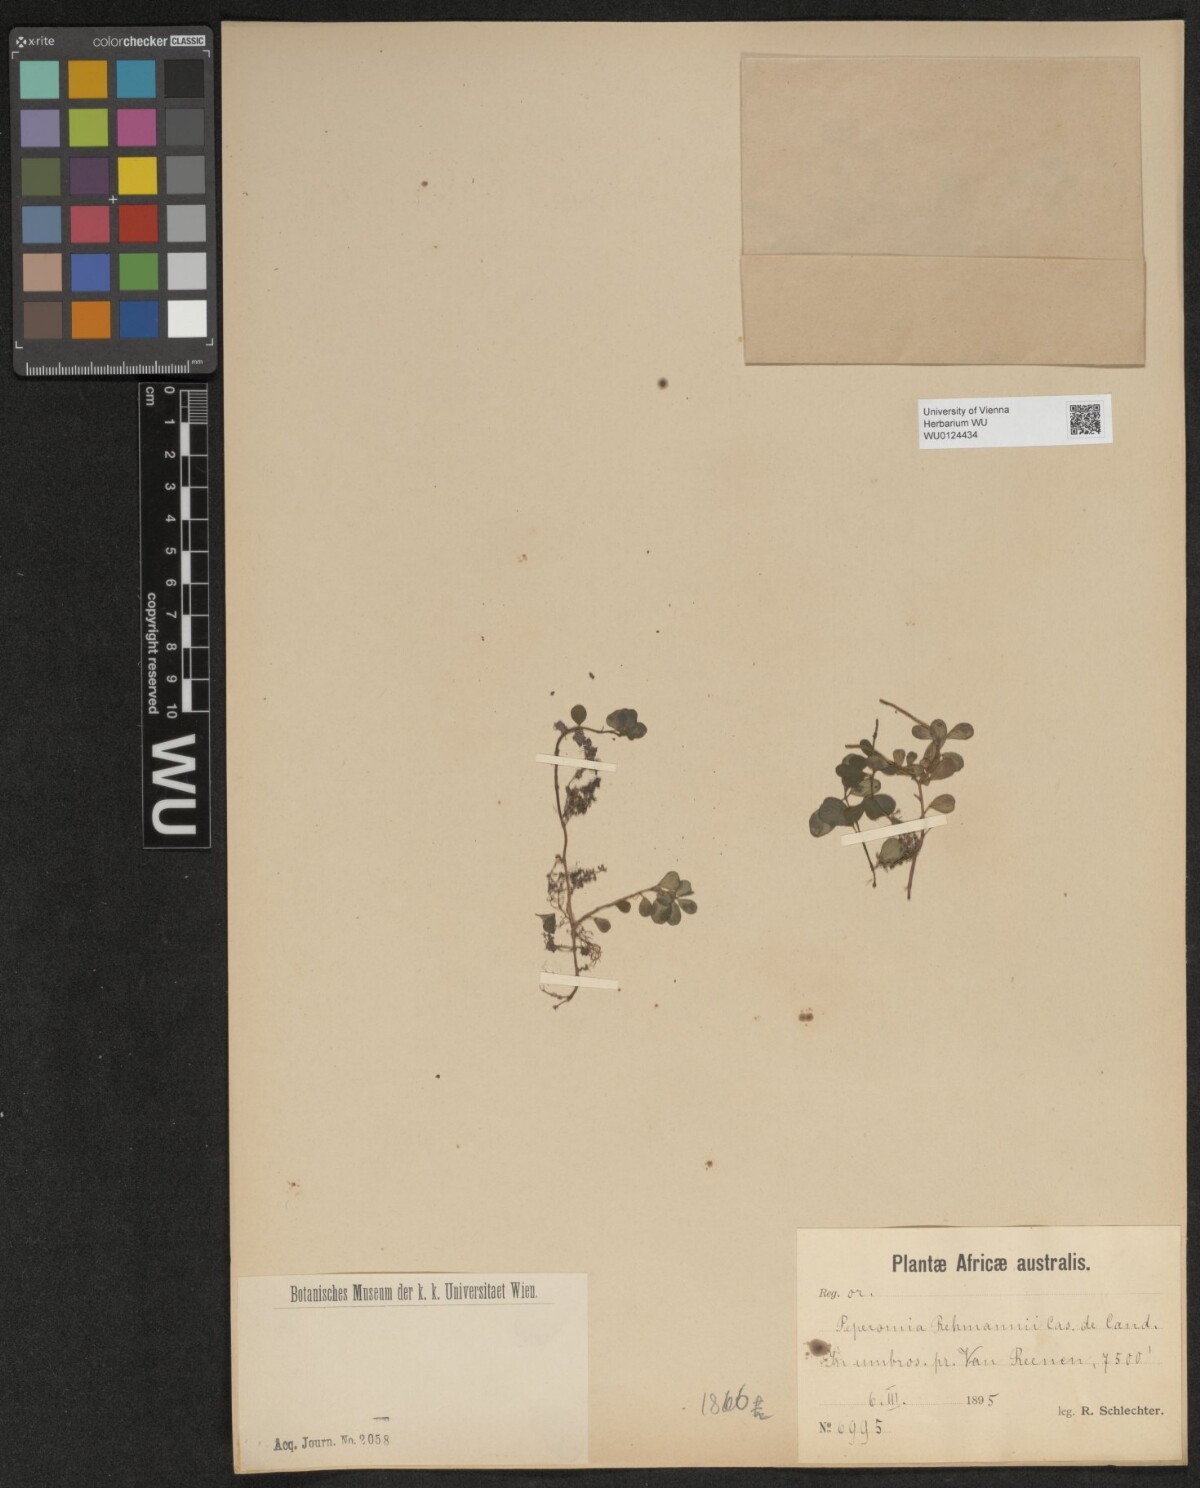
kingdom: Plantae
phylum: Tracheophyta
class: Magnoliopsida
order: Piperales
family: Piperaceae
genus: Peperomia
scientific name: Peperomia retusa
